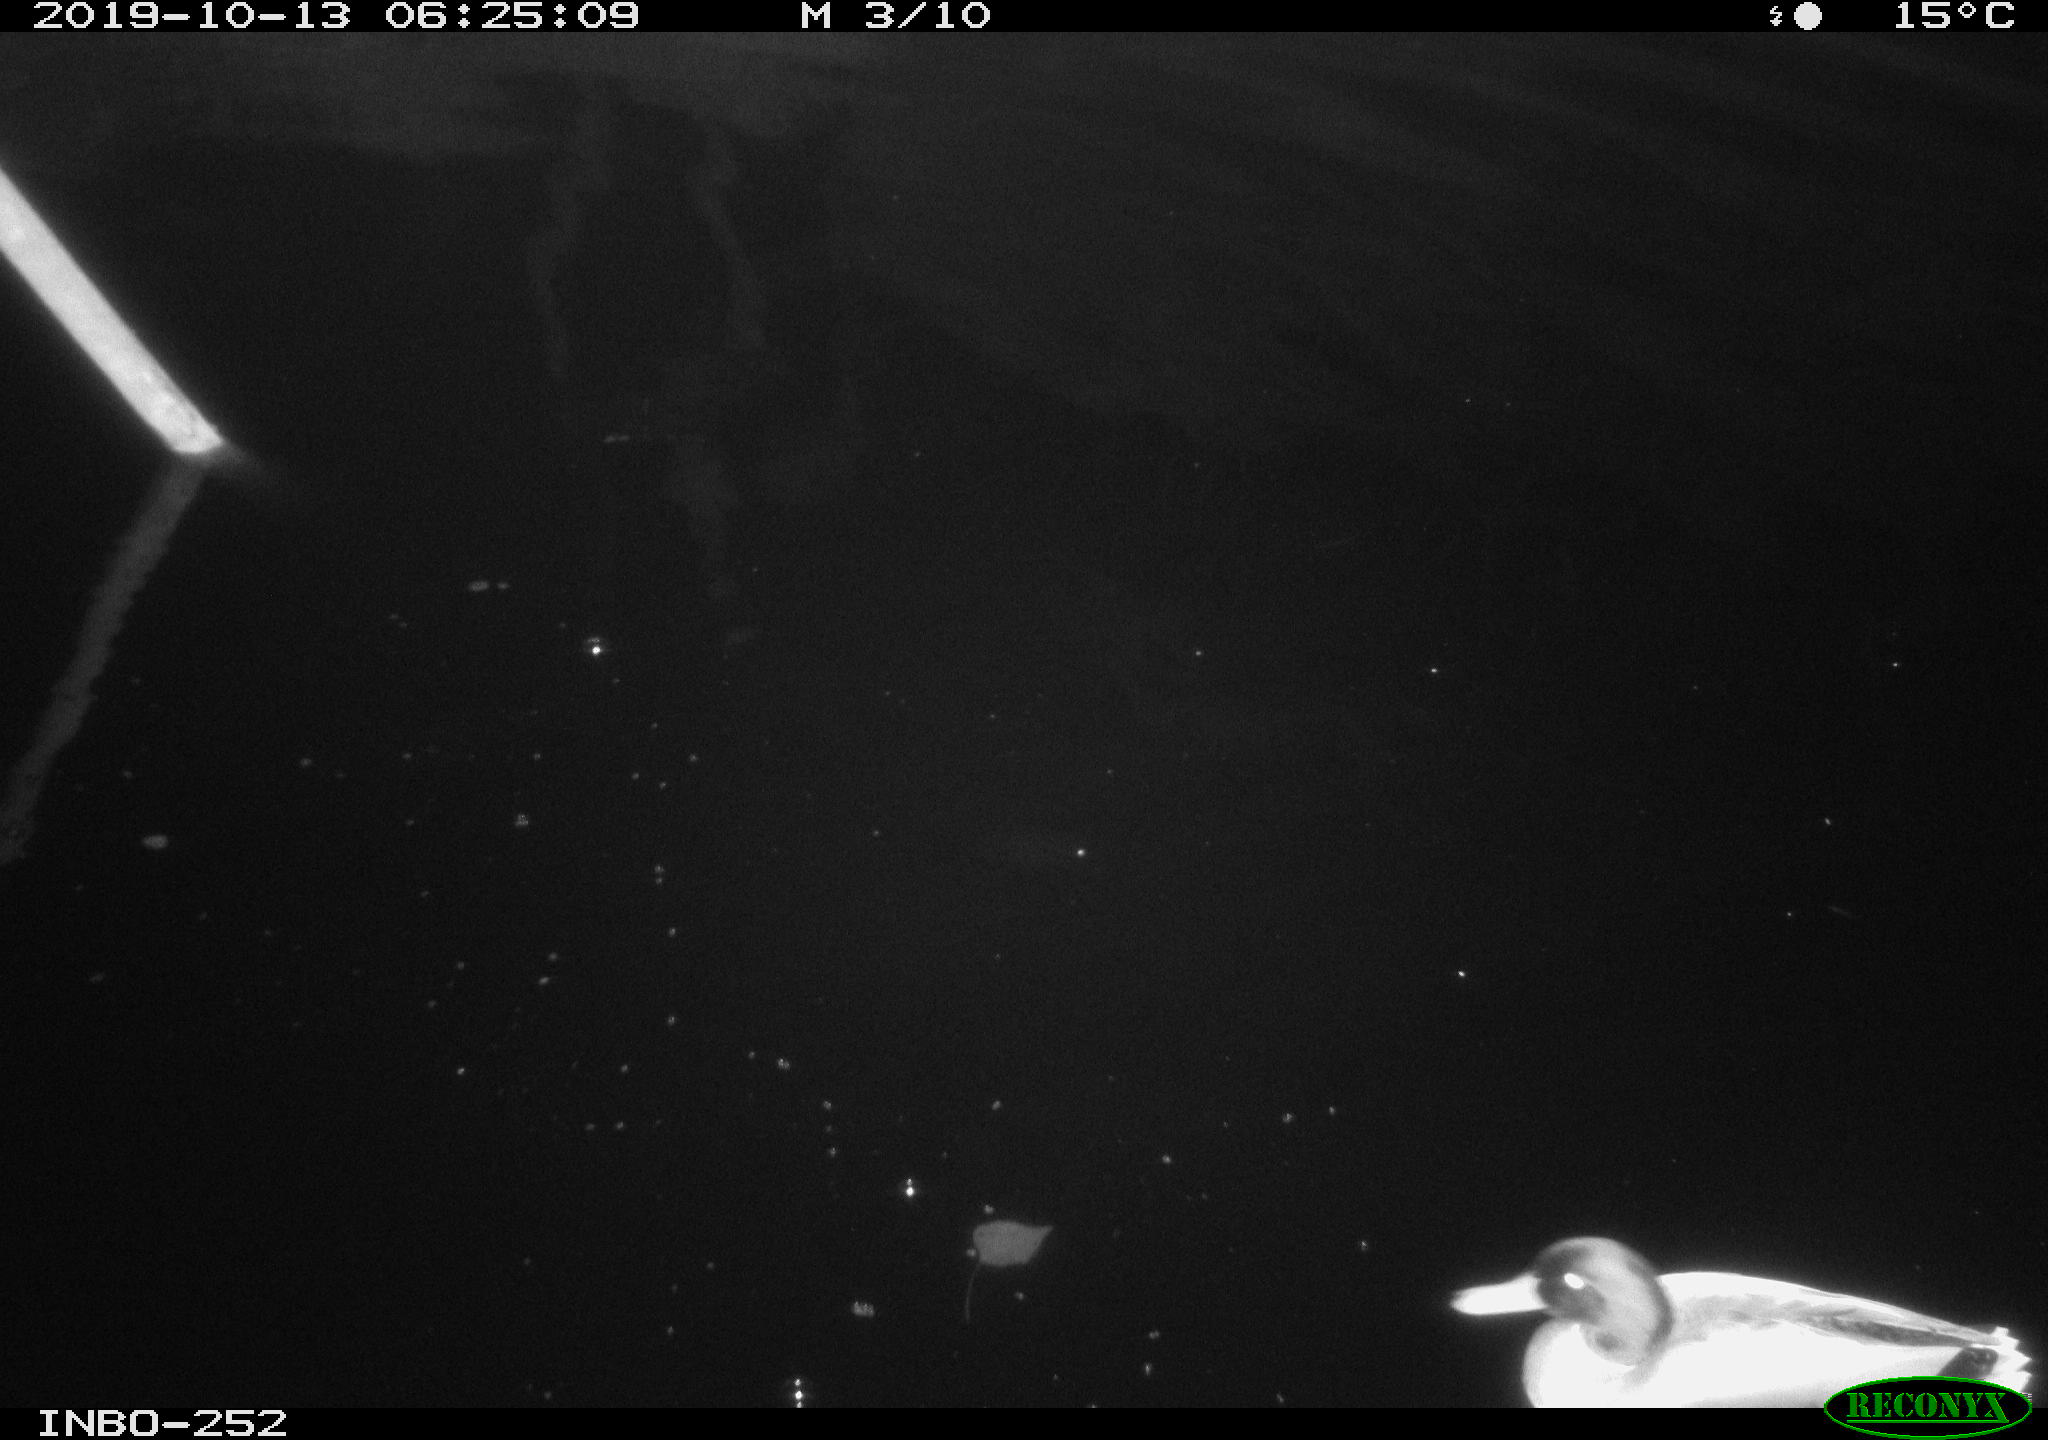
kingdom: Animalia
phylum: Chordata
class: Aves
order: Anseriformes
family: Anatidae
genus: Anas
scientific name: Anas platyrhynchos
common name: Mallard
